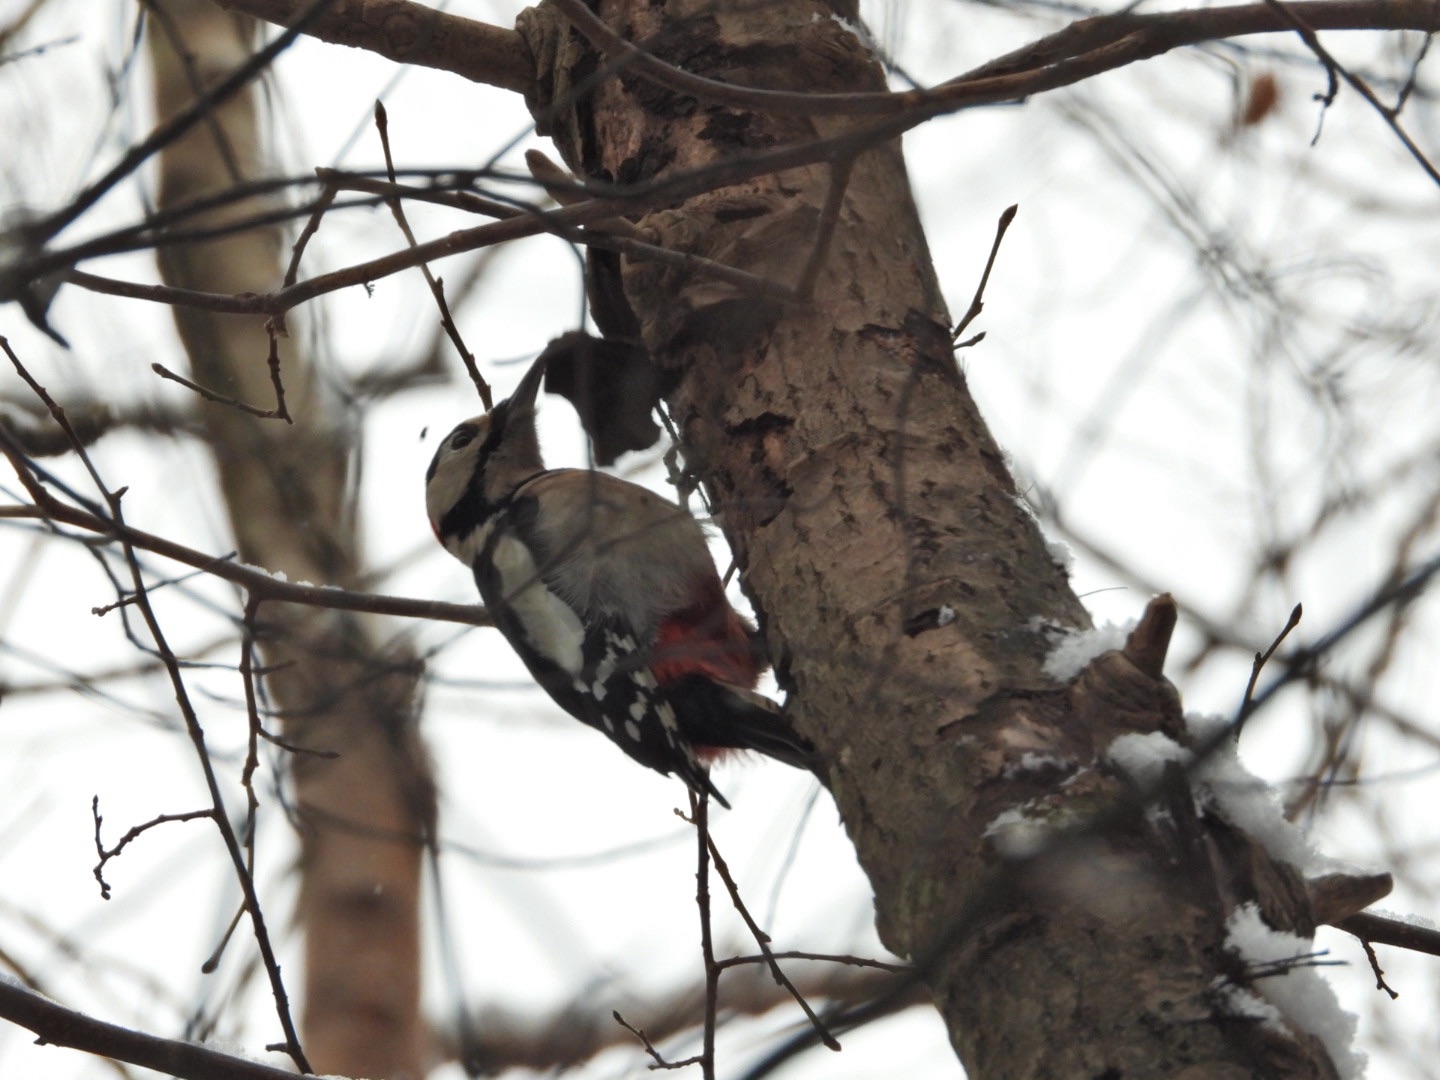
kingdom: Animalia
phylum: Chordata
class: Aves
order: Piciformes
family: Picidae
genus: Dendrocopos
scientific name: Dendrocopos major
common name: Stor flagspætte
